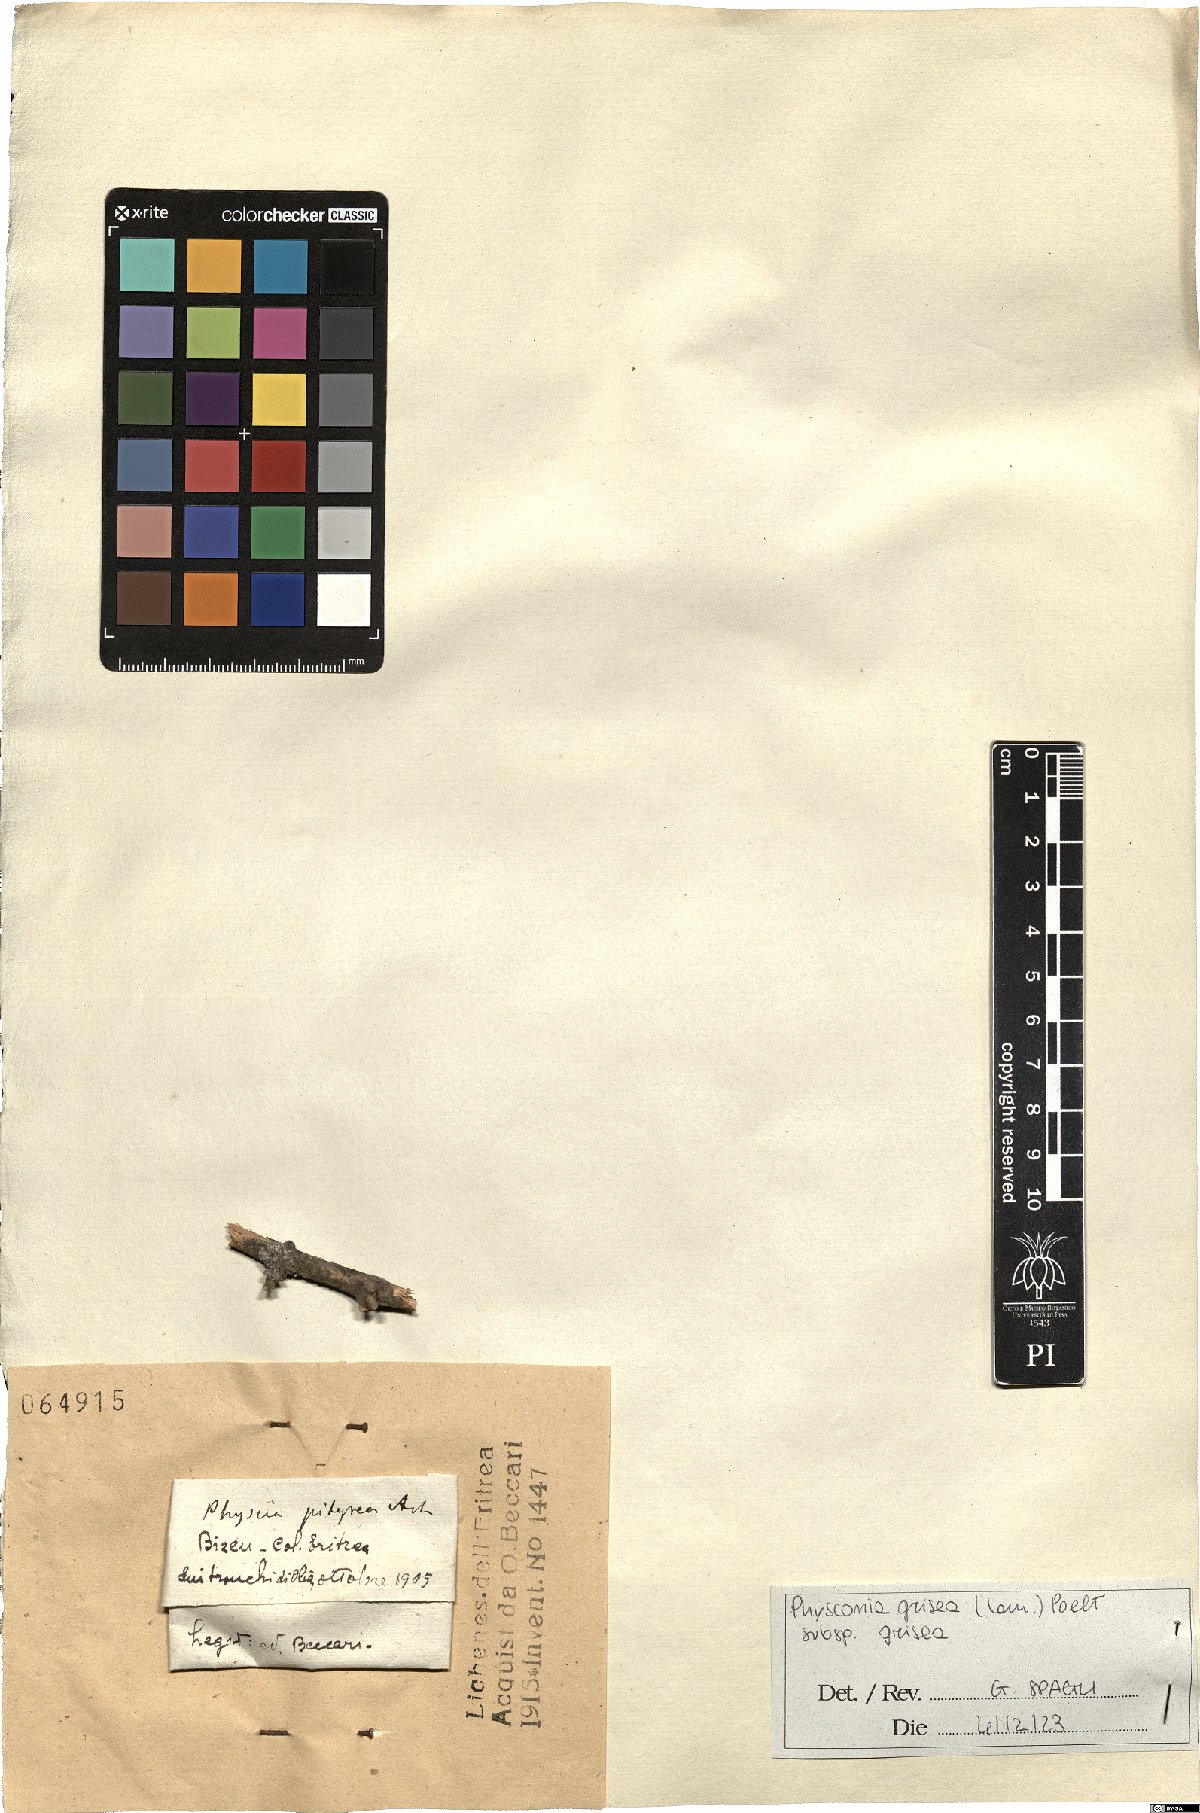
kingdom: Fungi
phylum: Ascomycota
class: Lecanoromycetes
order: Caliciales
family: Physciaceae
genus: Poeltonia
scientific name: Poeltonia grisea
